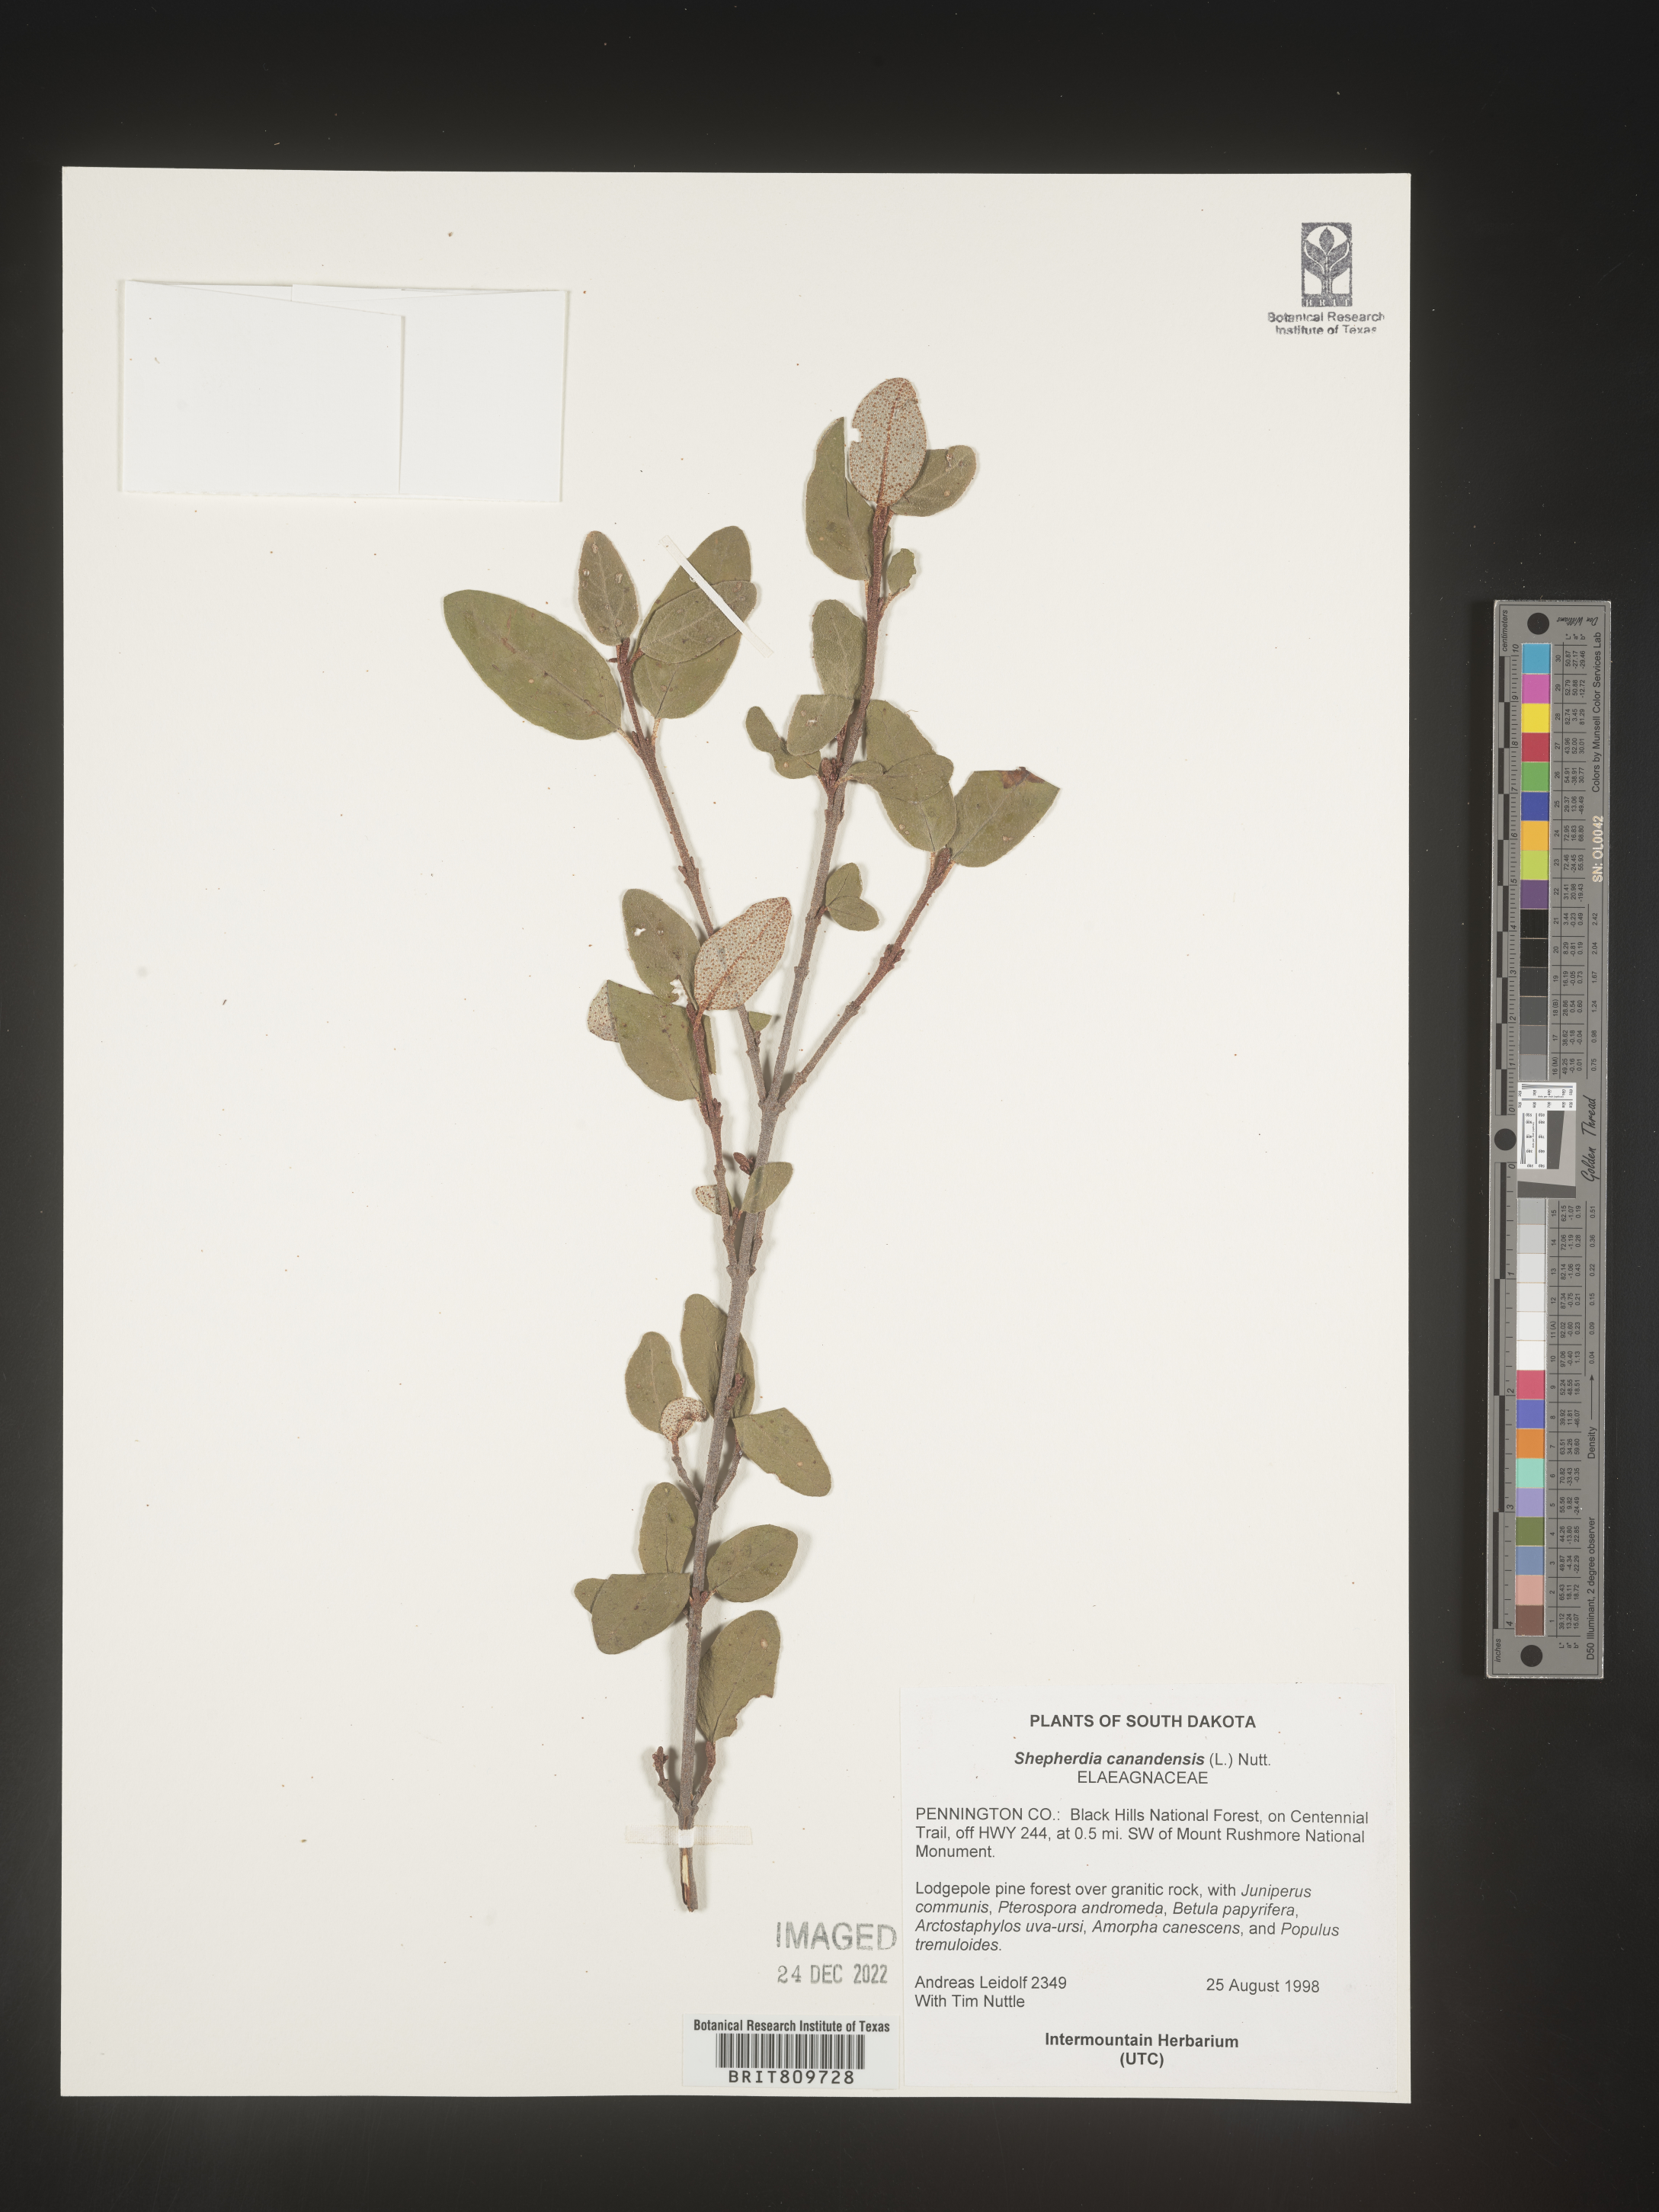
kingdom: Plantae
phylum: Tracheophyta
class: Magnoliopsida
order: Rosales
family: Elaeagnaceae
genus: Shepherdia
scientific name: Shepherdia canadensis
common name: Soapberry
